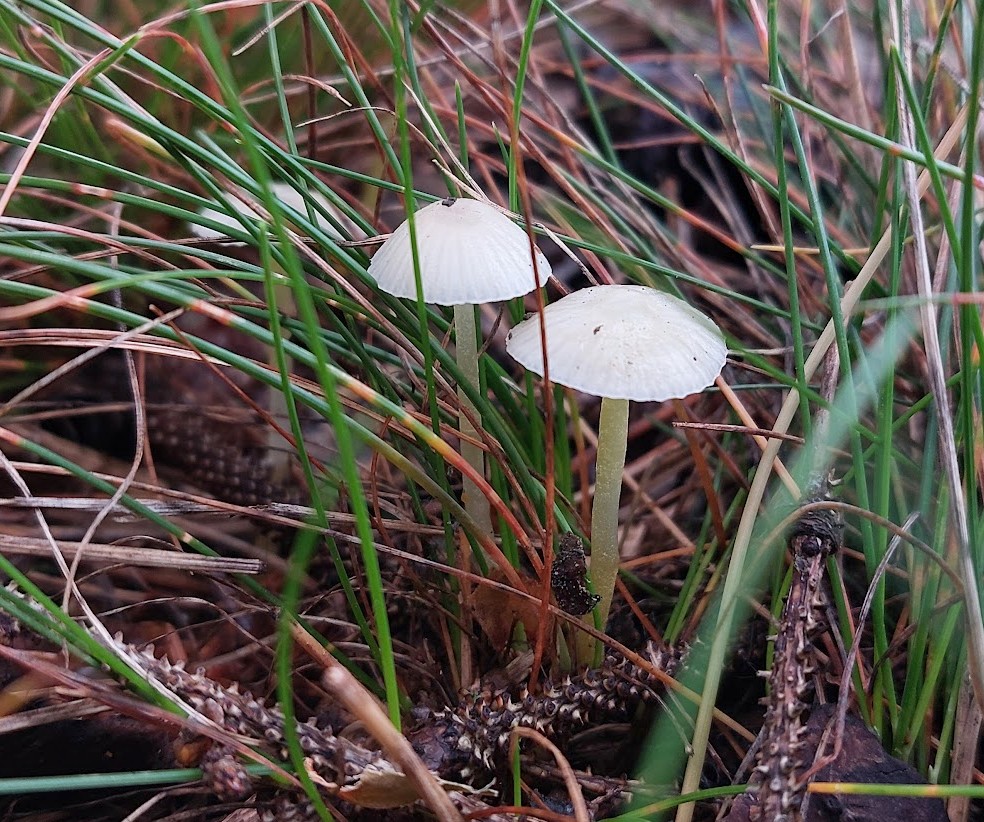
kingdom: Fungi
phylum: Basidiomycota
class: Agaricomycetes
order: Agaricales
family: Mycenaceae
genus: Mycena
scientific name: Mycena epipterygia
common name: gulstokket huesvamp
